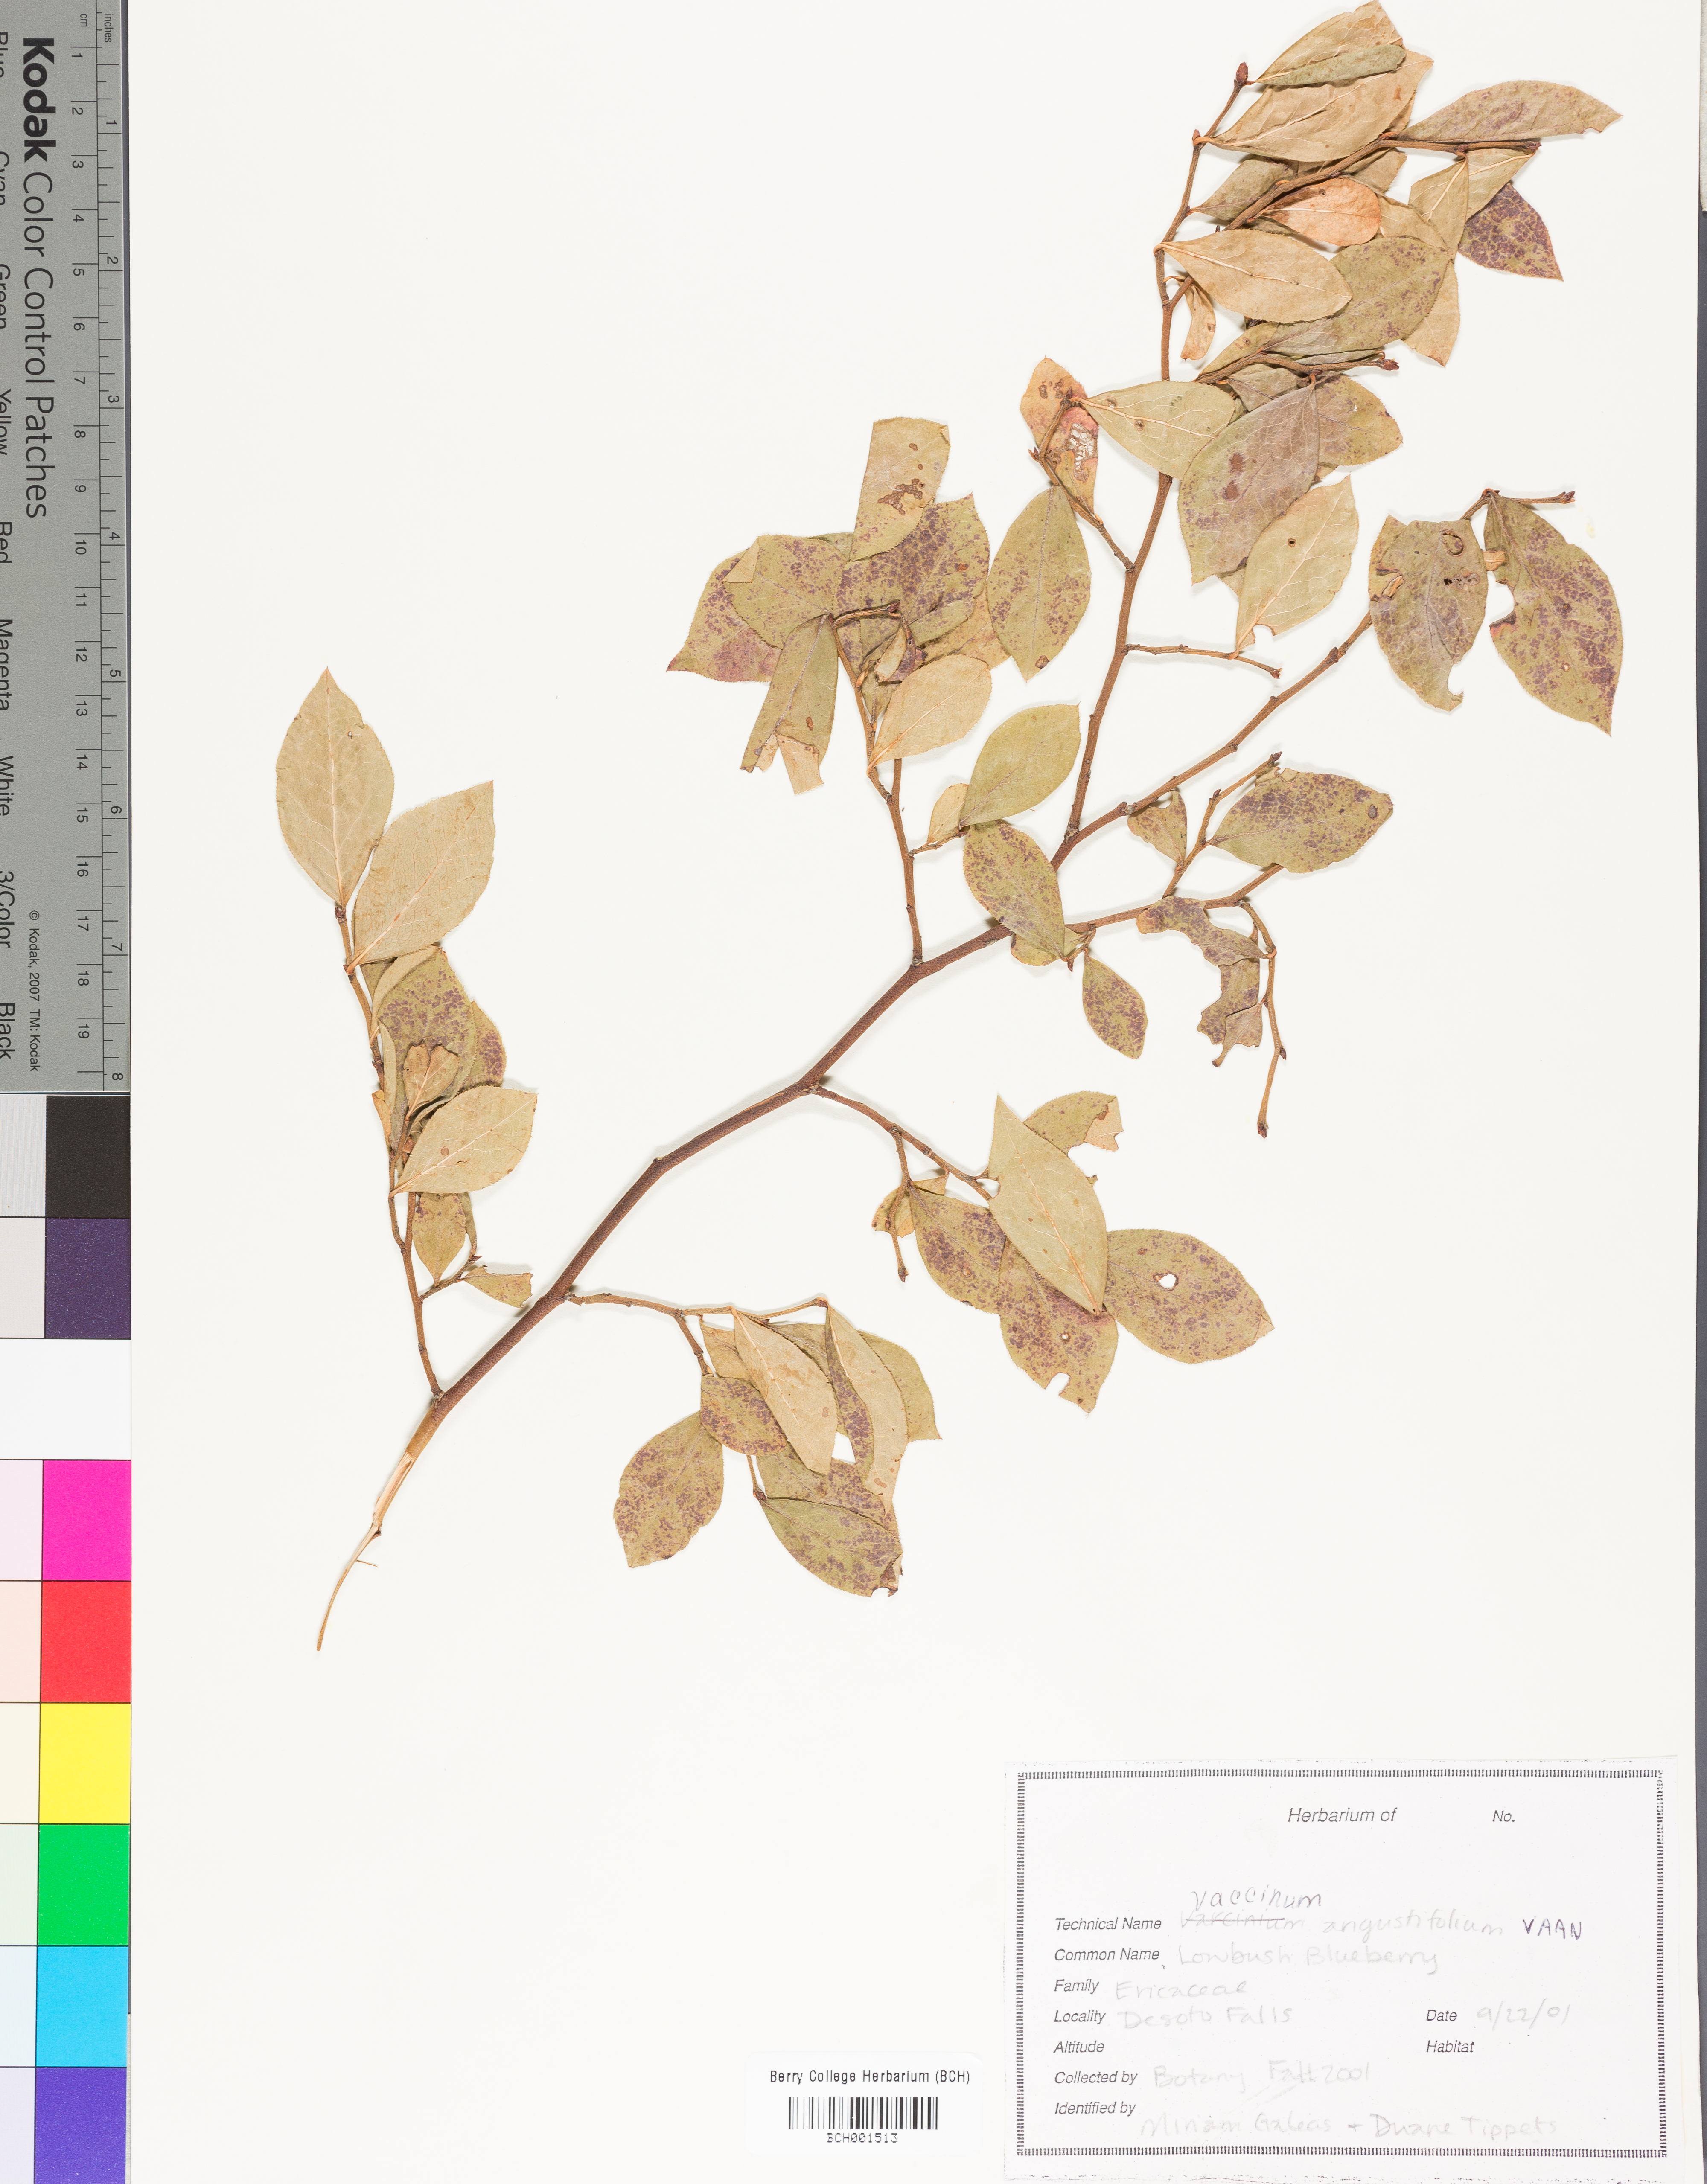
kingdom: Plantae
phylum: Tracheophyta
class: Magnoliopsida
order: Ericales
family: Ericaceae
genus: Vaccinium
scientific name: Vaccinium angustifolium
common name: Early lowbush blueberry
